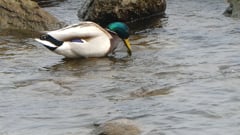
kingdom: Animalia
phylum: Chordata
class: Aves
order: Anseriformes
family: Anatidae
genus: Anas
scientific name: Anas platyrhynchos
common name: Mallard
